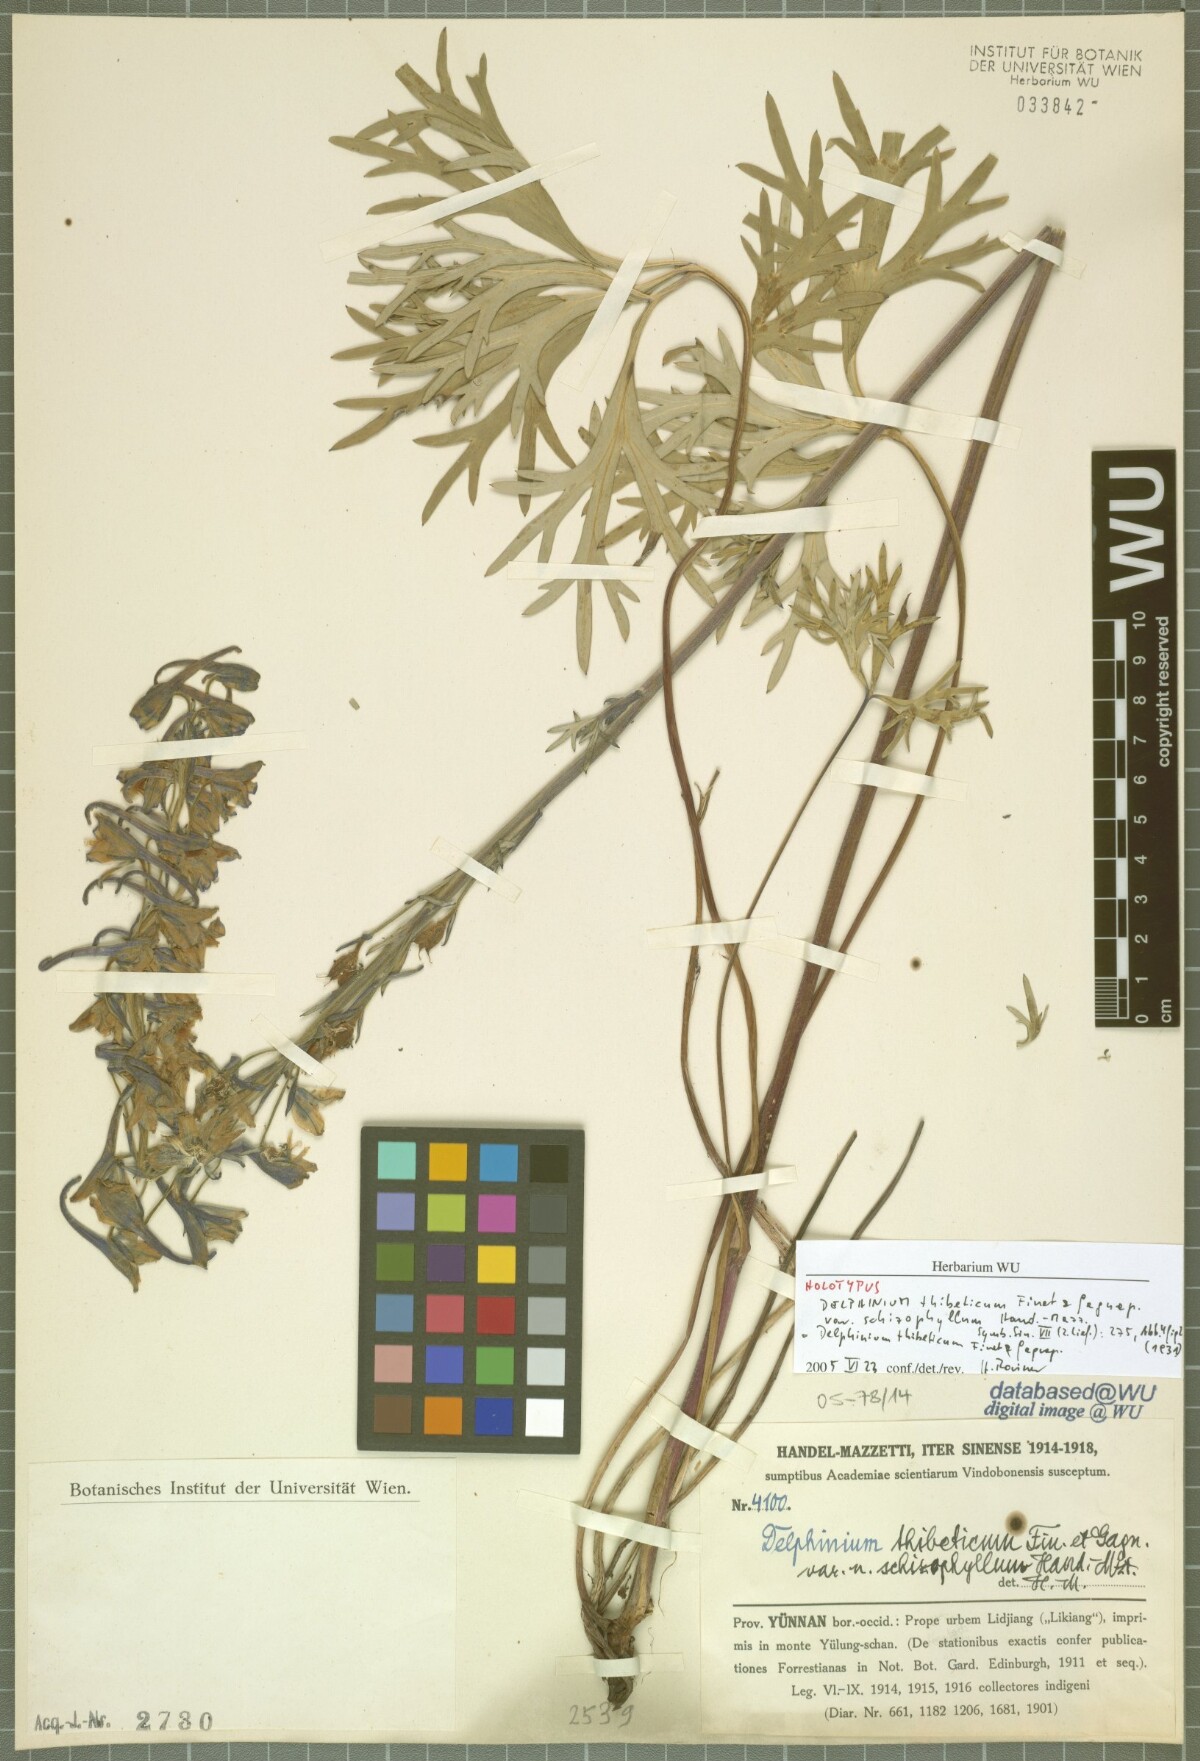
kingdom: Plantae
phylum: Tracheophyta
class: Magnoliopsida
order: Ranunculales
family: Ranunculaceae
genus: Delphinium
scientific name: Delphinium thibeticum
